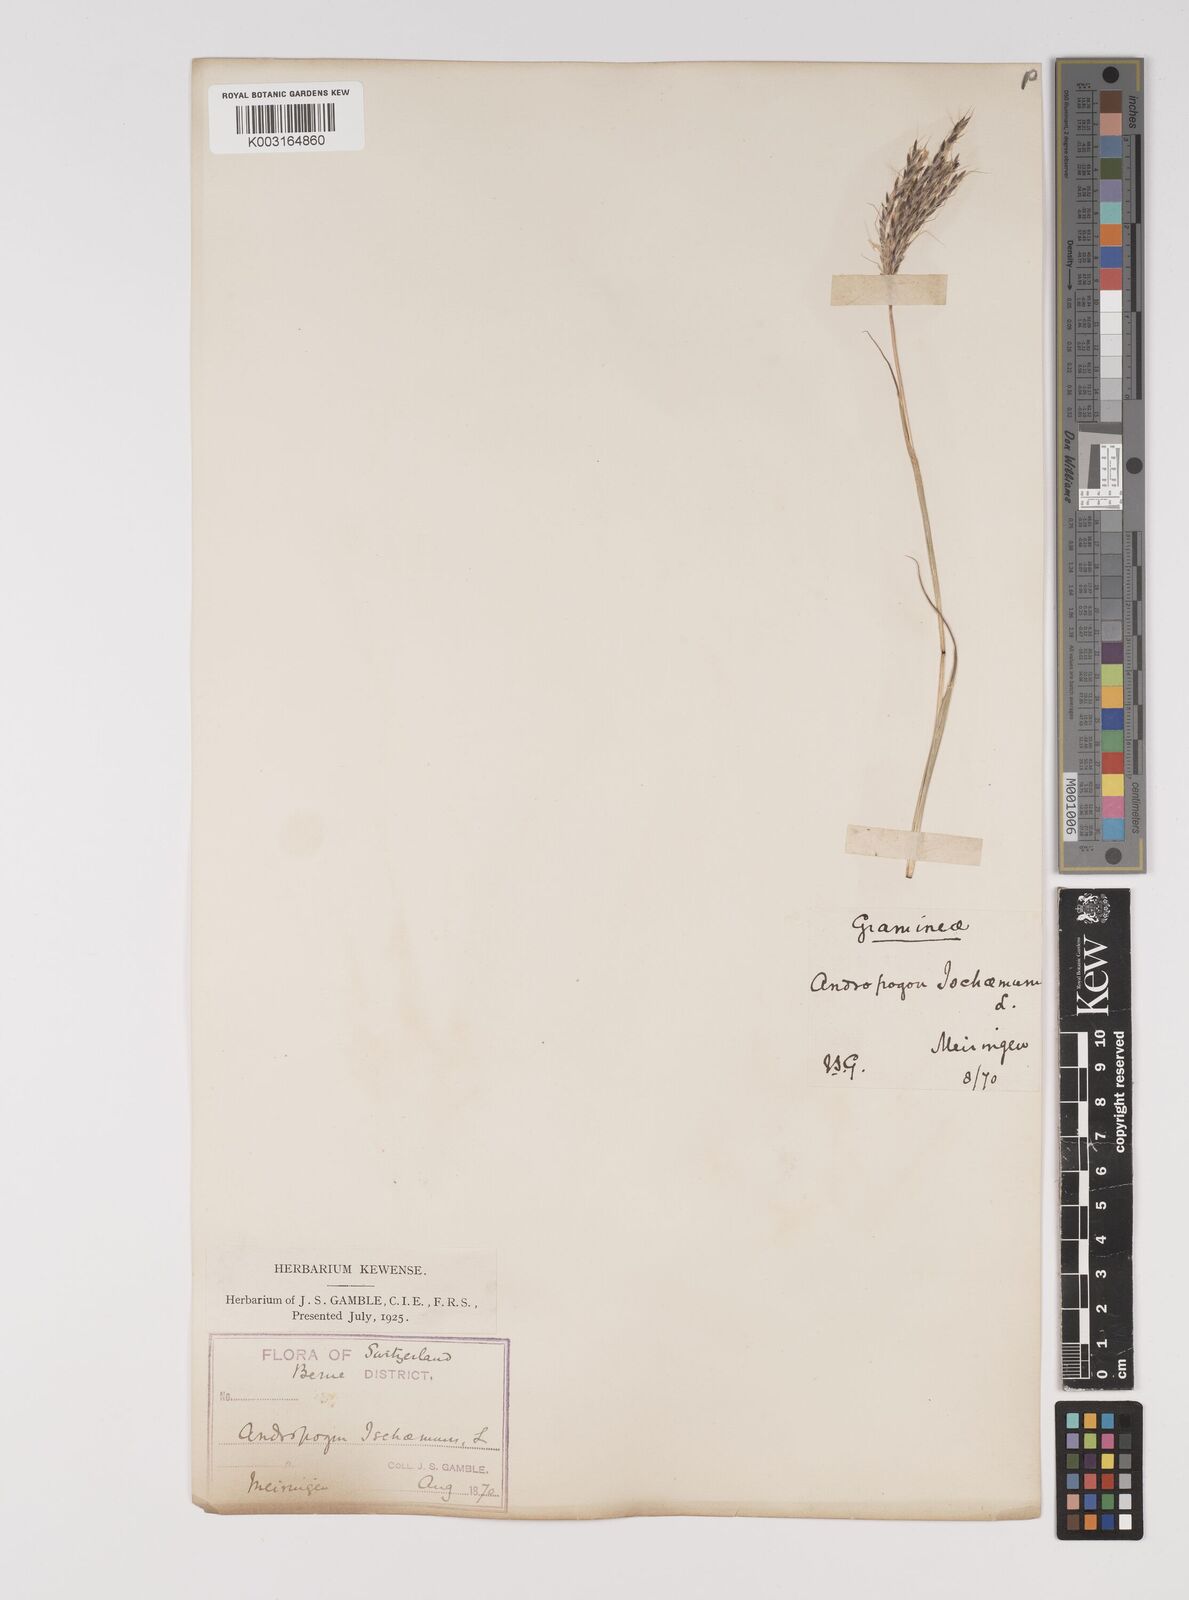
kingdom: Plantae
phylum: Tracheophyta
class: Liliopsida
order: Poales
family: Poaceae
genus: Bothriochloa
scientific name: Bothriochloa ischaemum
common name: Yellow bluestem
